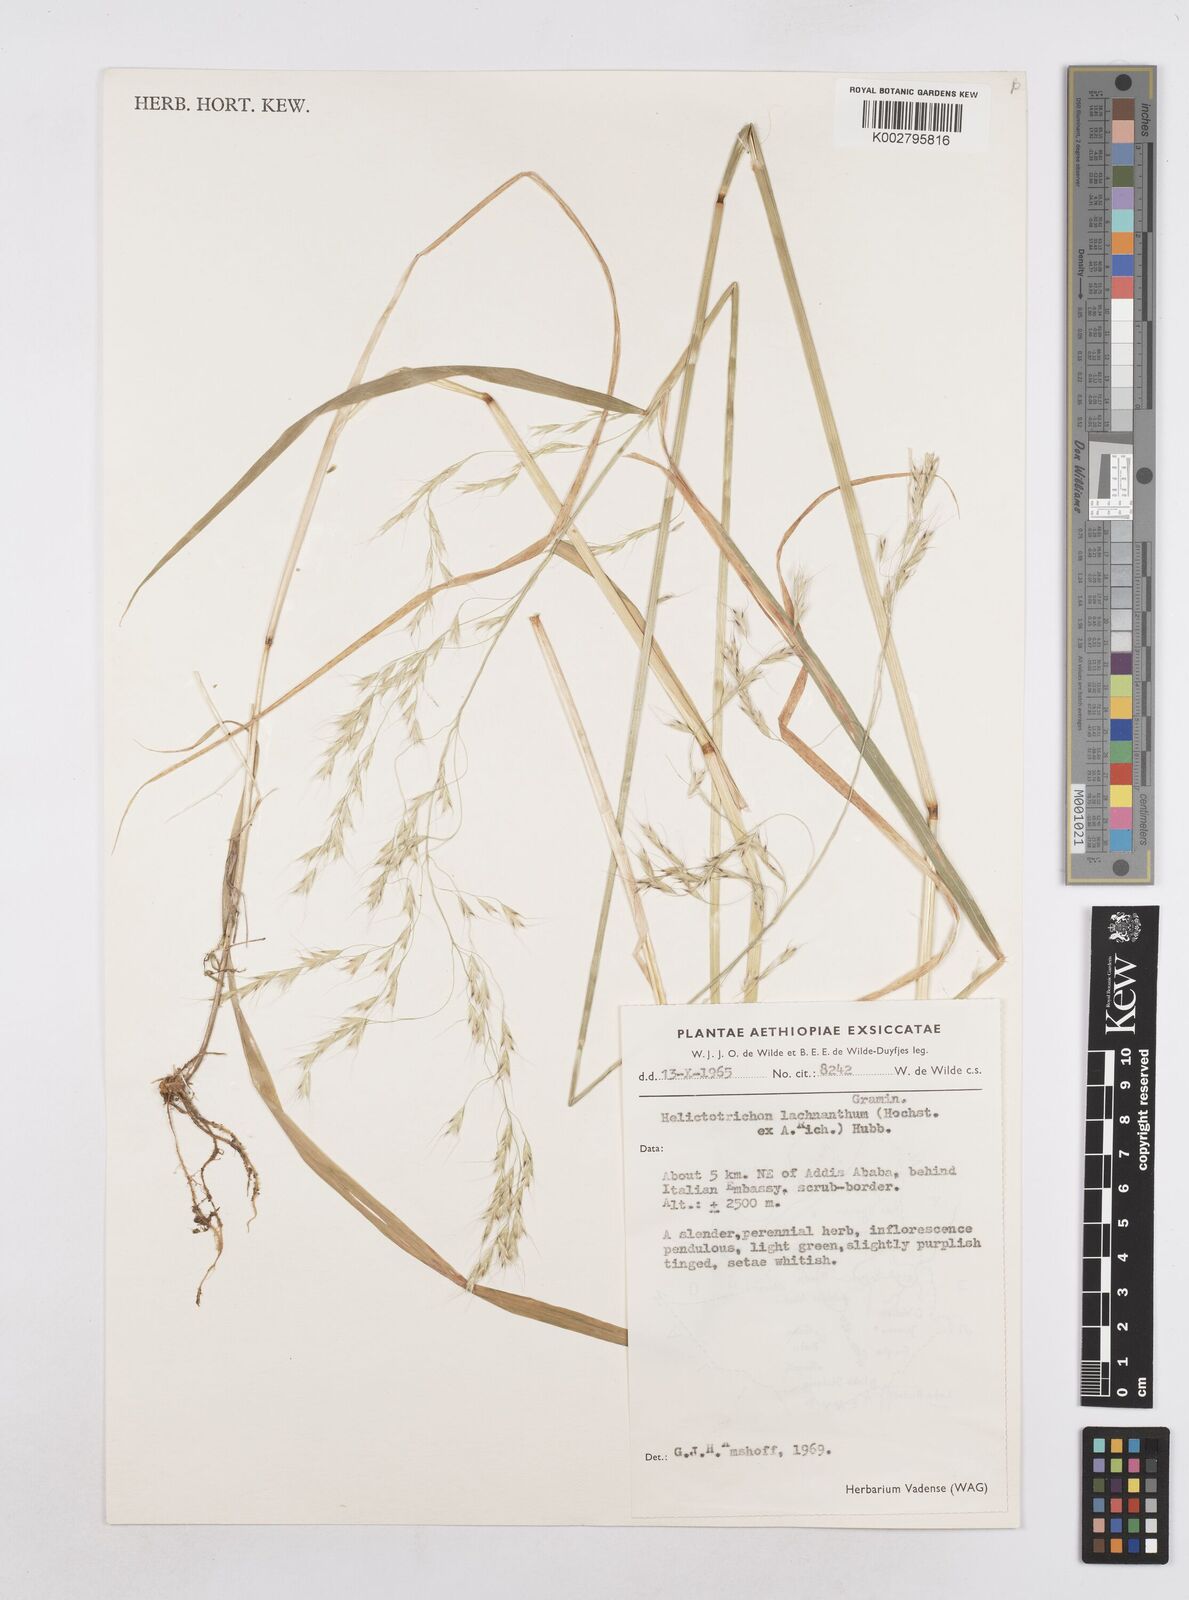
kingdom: Plantae
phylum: Tracheophyta
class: Liliopsida
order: Poales
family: Poaceae
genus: Trisetopsis
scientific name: Trisetopsis lachnantha
